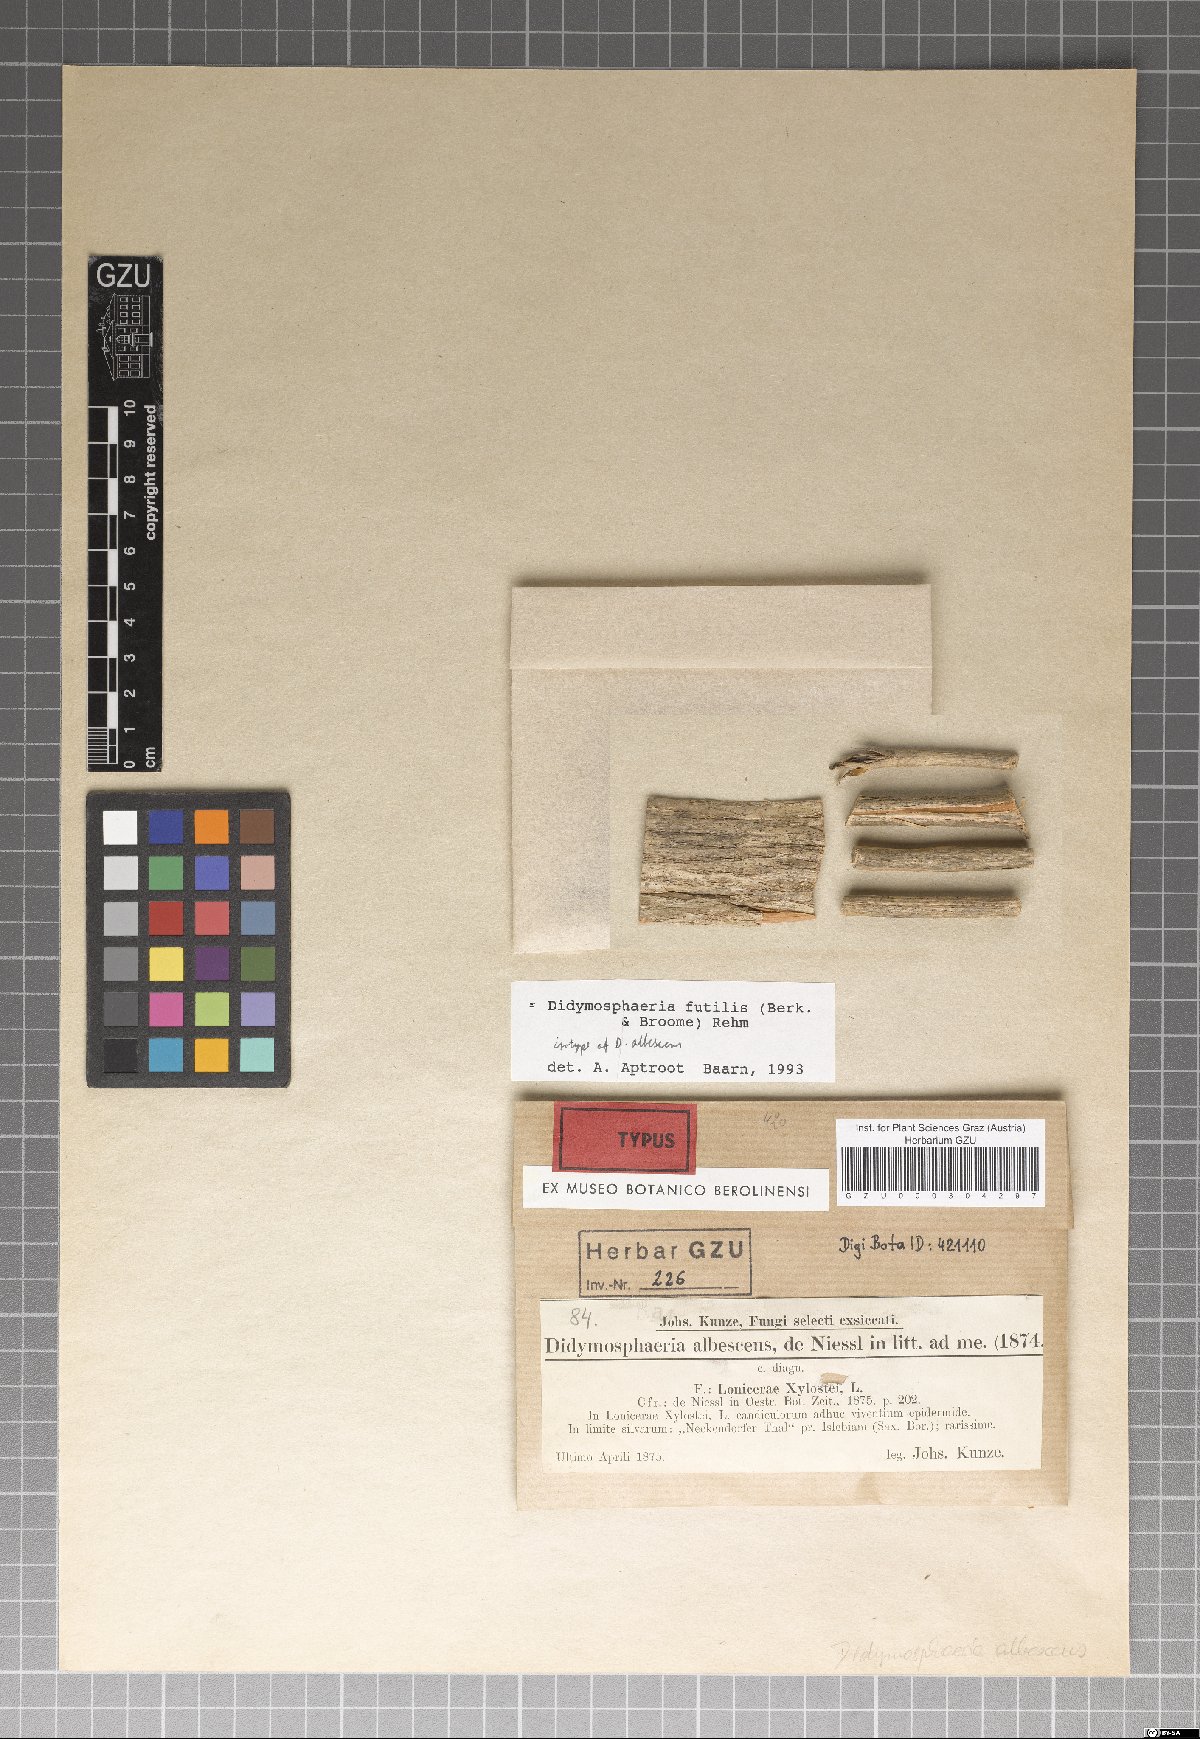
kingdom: Fungi
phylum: Ascomycota
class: Dothideomycetes
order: Pleosporales
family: Didymosphaeriaceae
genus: Didymosphaeria
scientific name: Didymosphaeria
